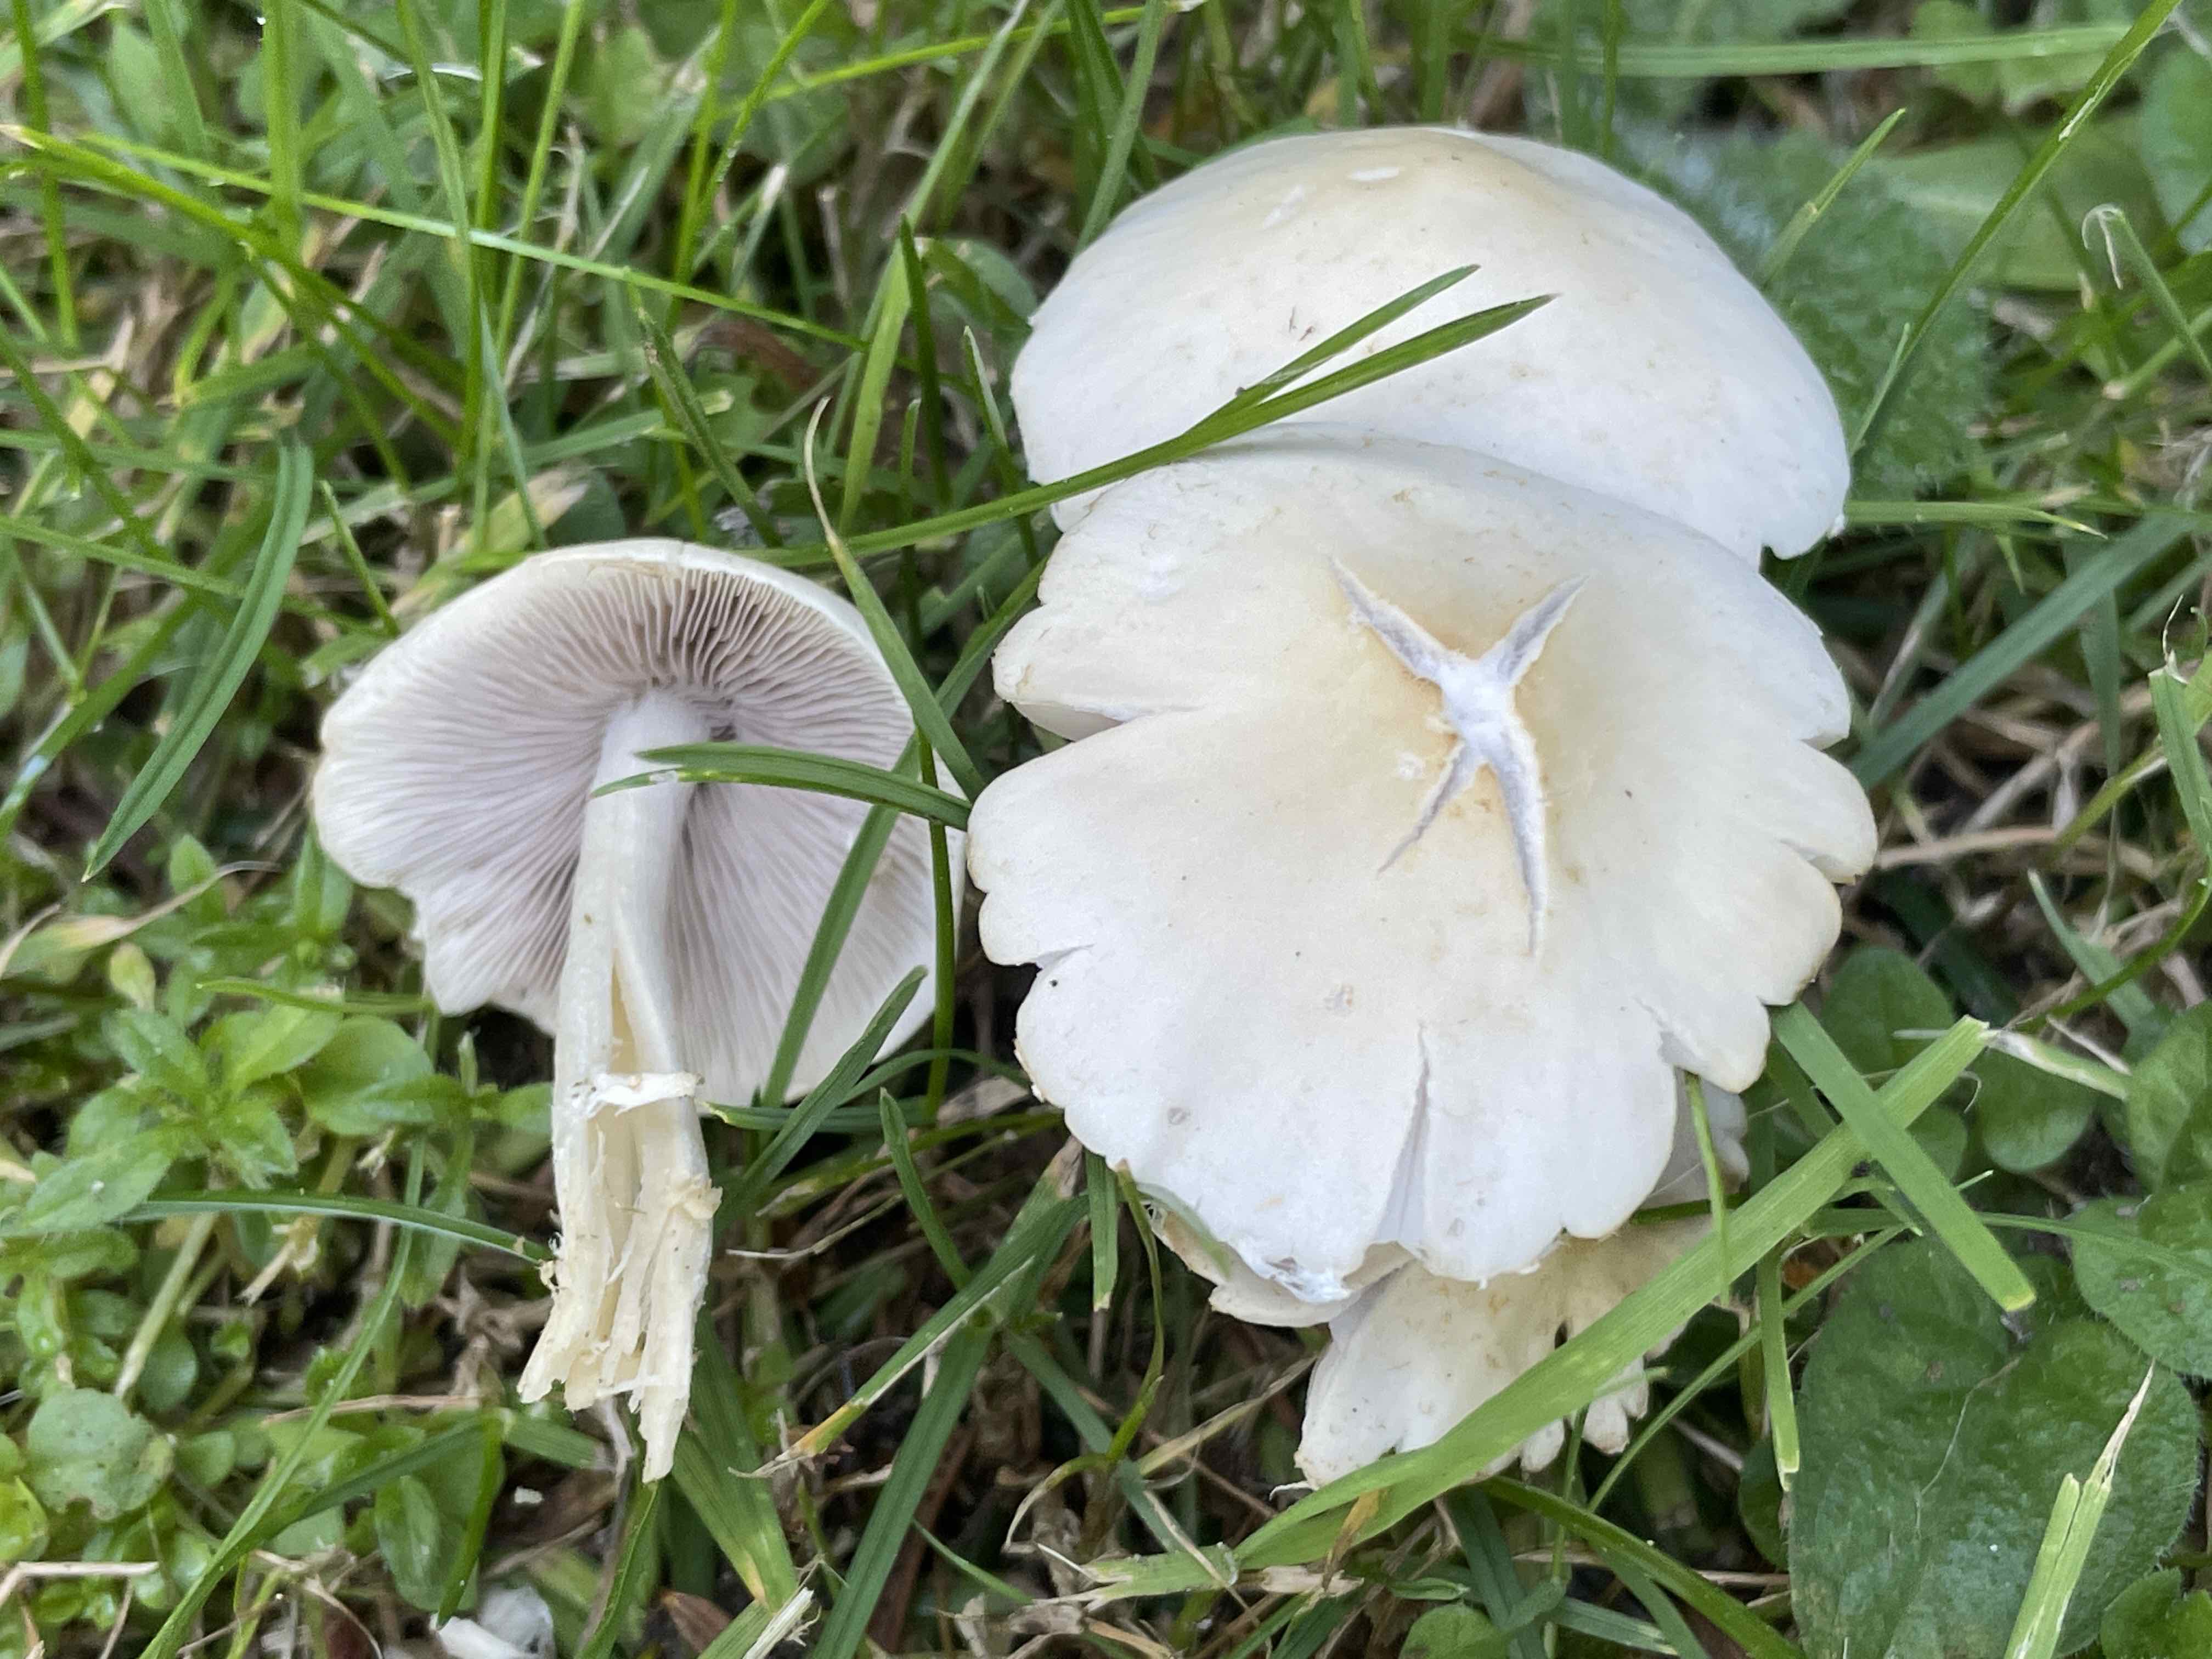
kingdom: Fungi
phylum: Basidiomycota
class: Agaricomycetes
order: Agaricales
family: Psathyrellaceae
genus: Candolleomyces
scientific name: Candolleomyces candolleanus
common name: Candolles mørkhat
